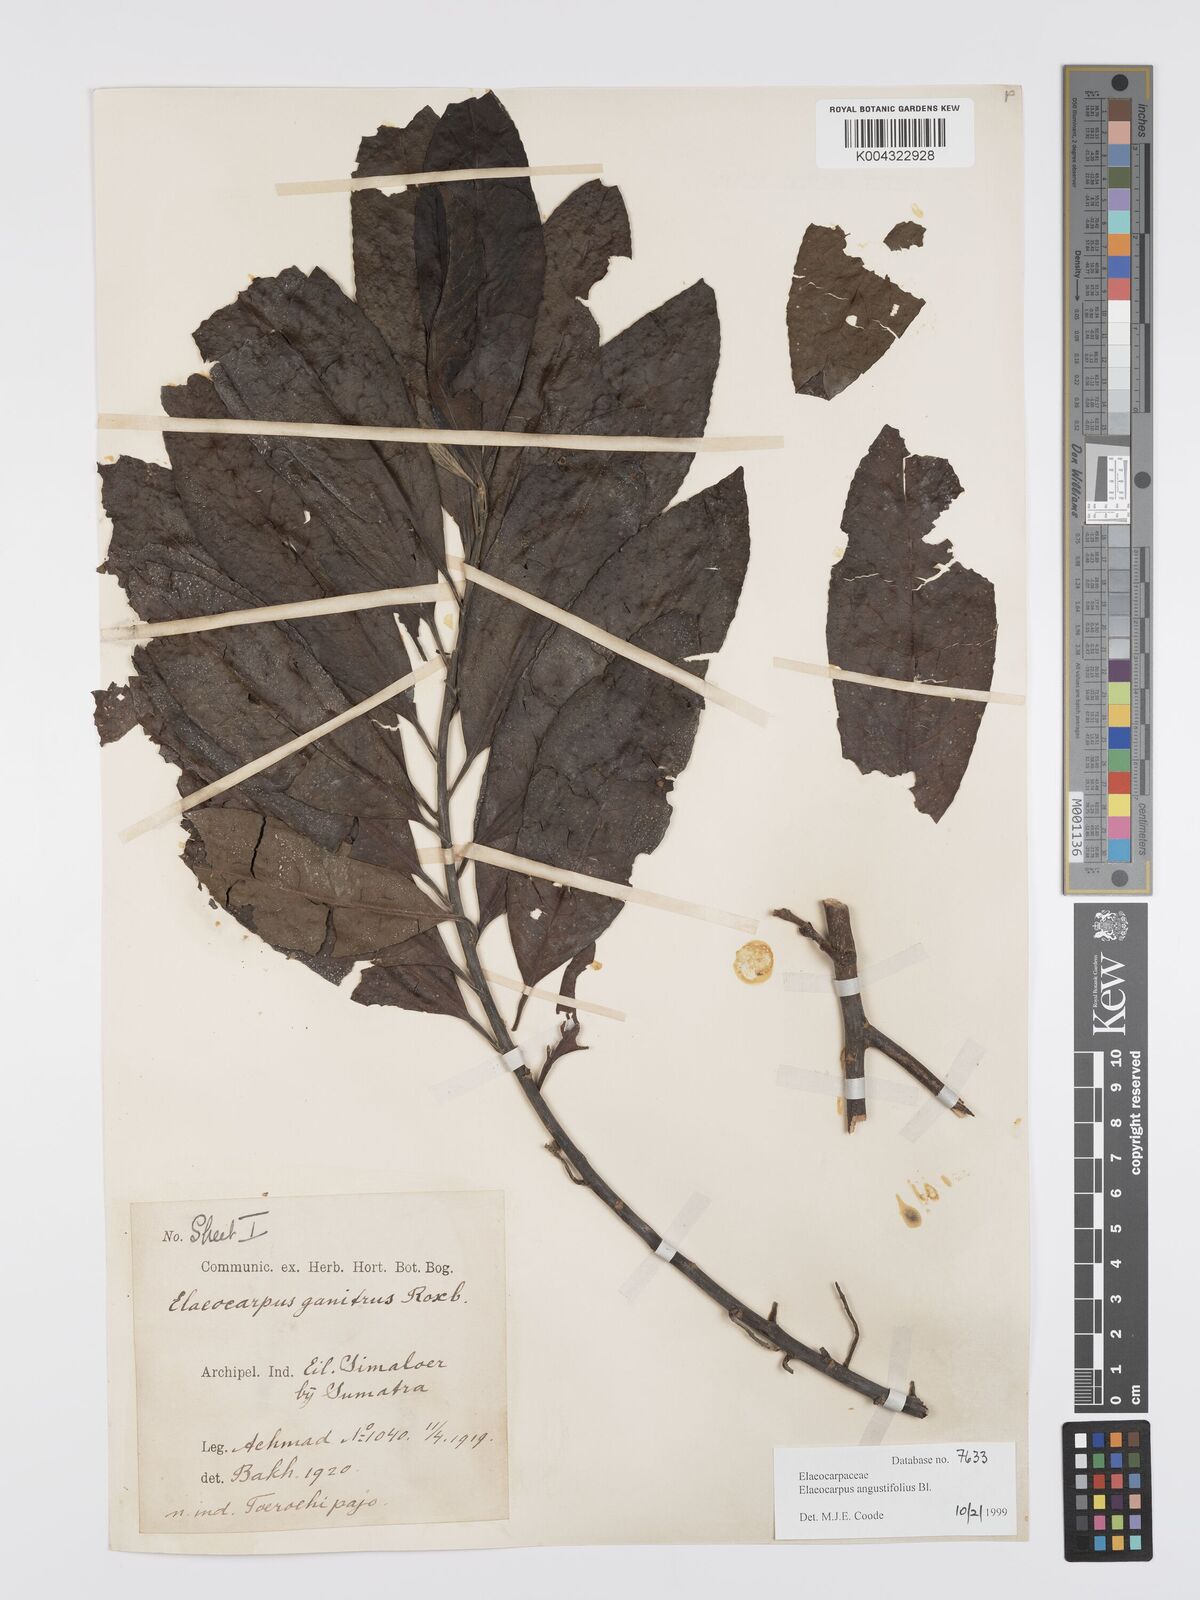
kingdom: Plantae
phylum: Tracheophyta
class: Magnoliopsida
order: Oxalidales
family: Elaeocarpaceae
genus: Elaeocarpus
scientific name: Elaeocarpus
